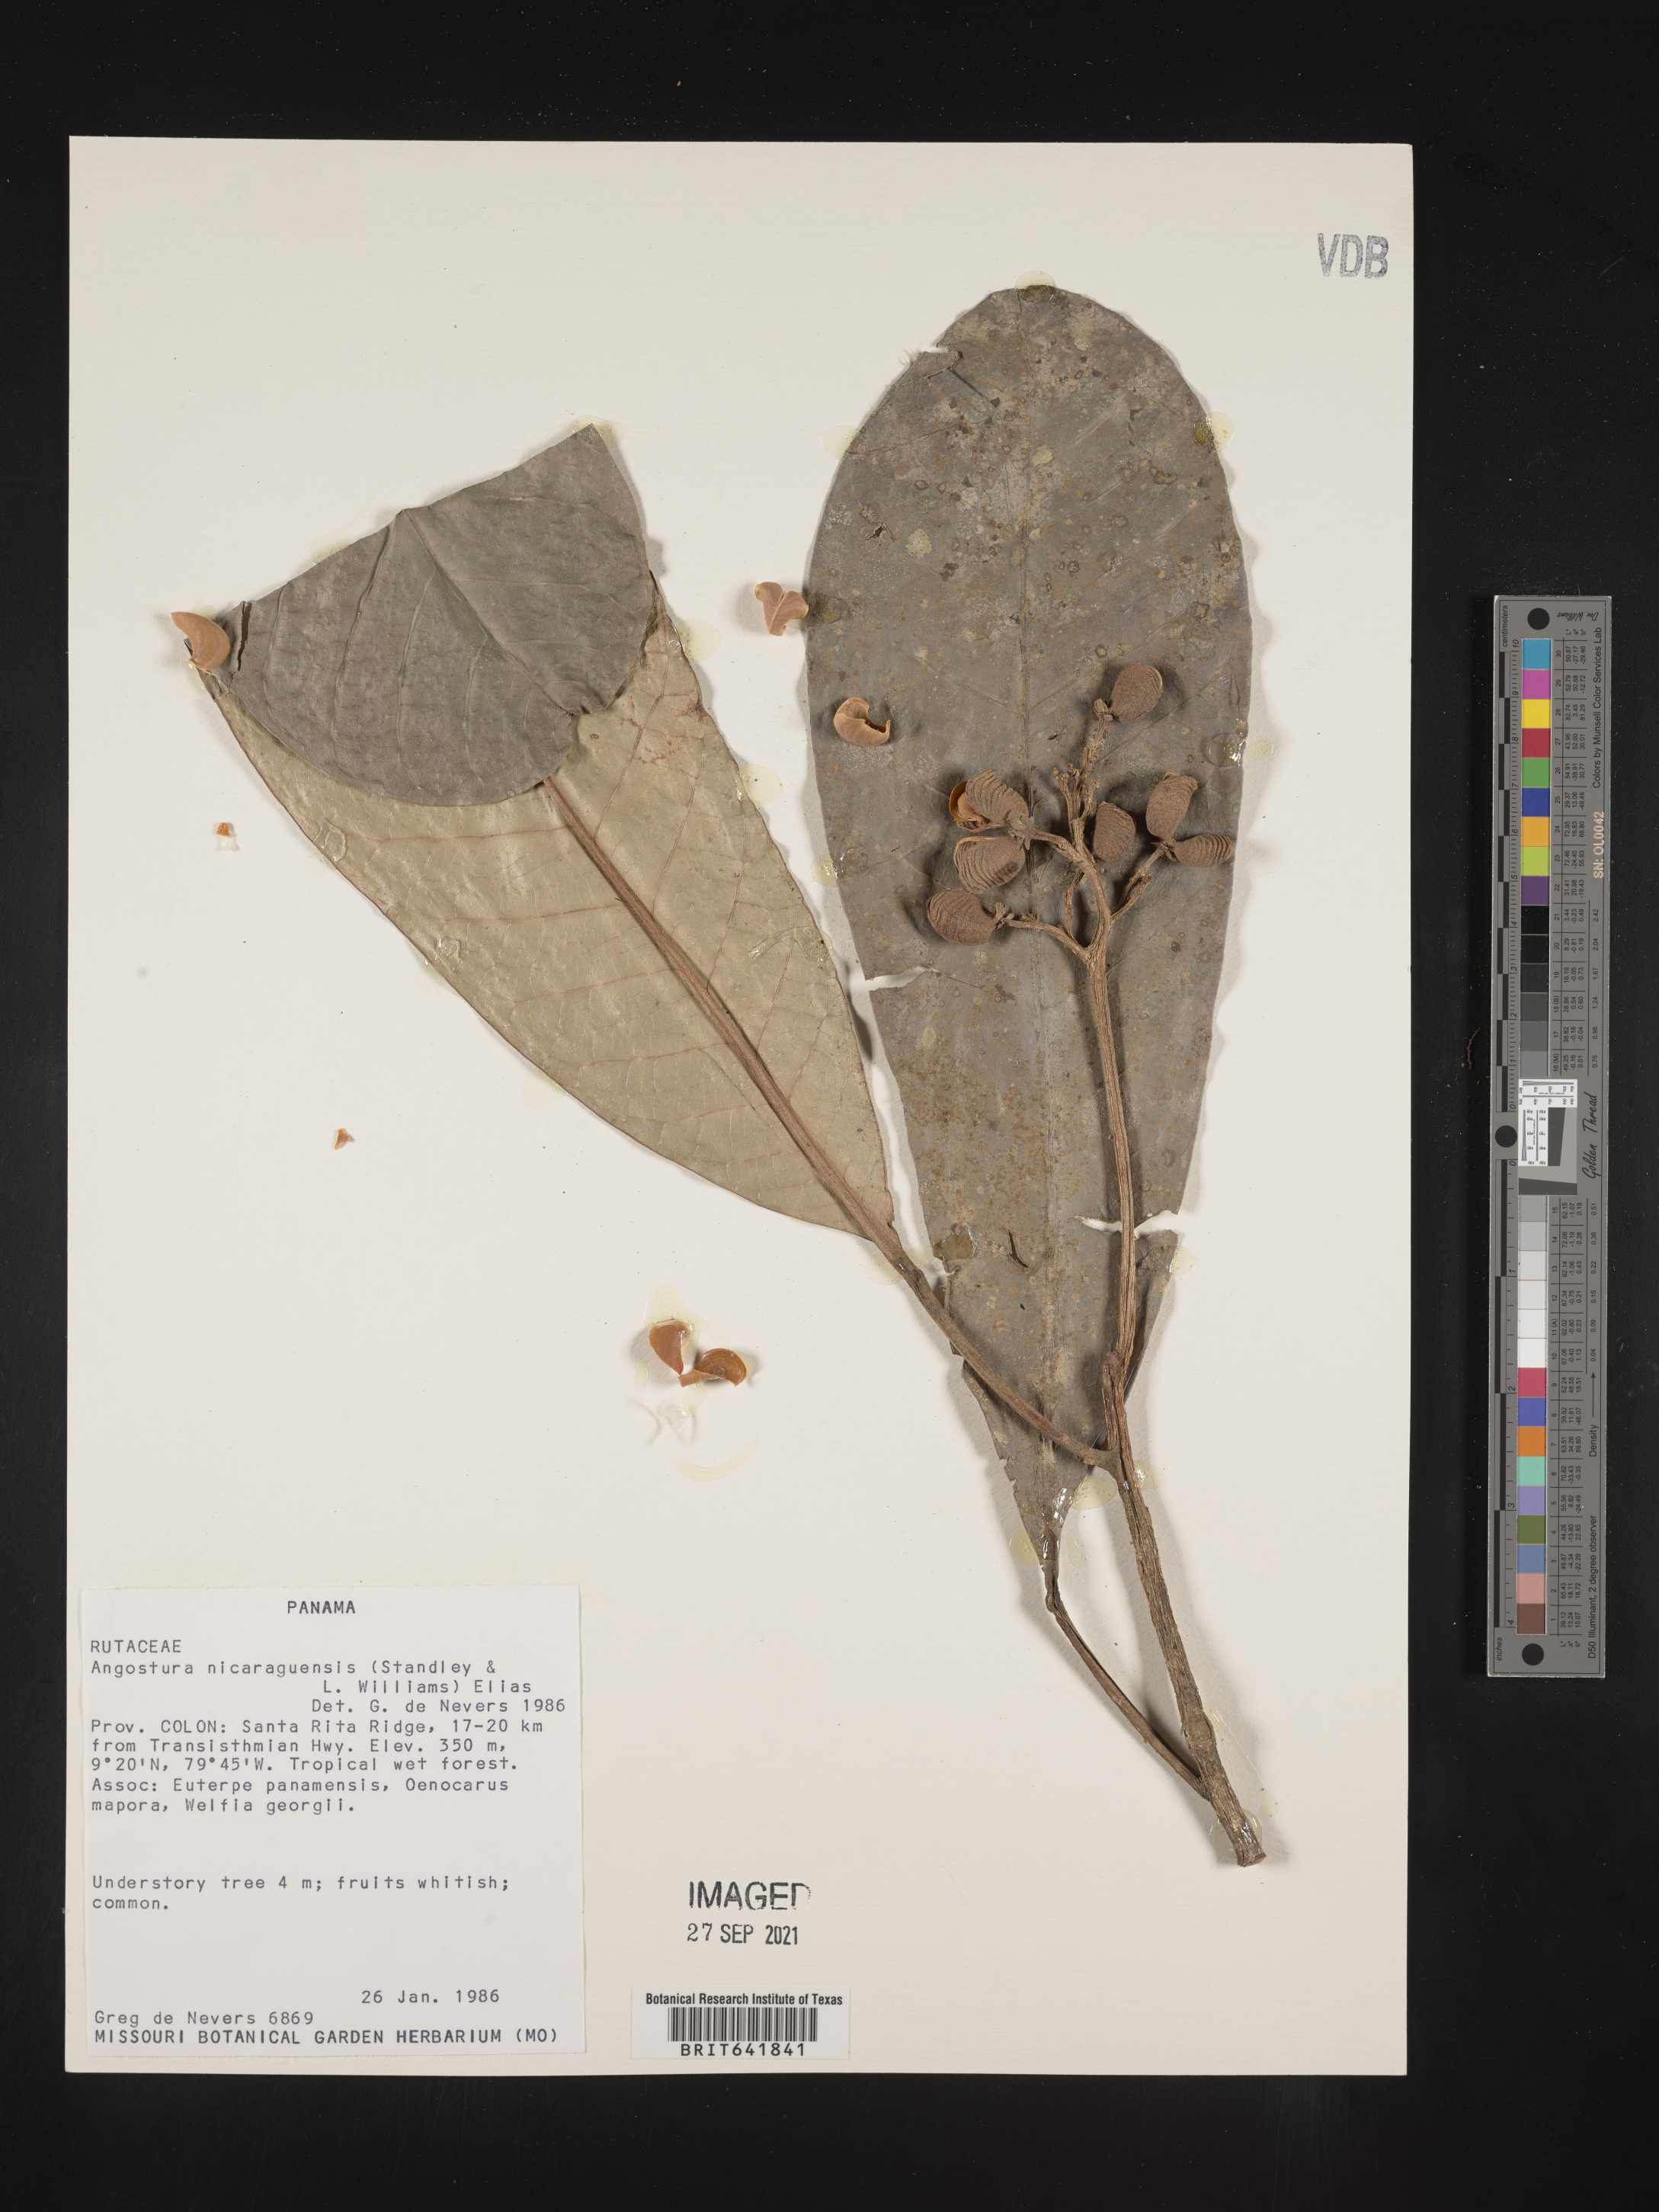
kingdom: Plantae
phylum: Tracheophyta
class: Magnoliopsida
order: Sapindales
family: Rutaceae
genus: Angostura
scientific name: Angostura
